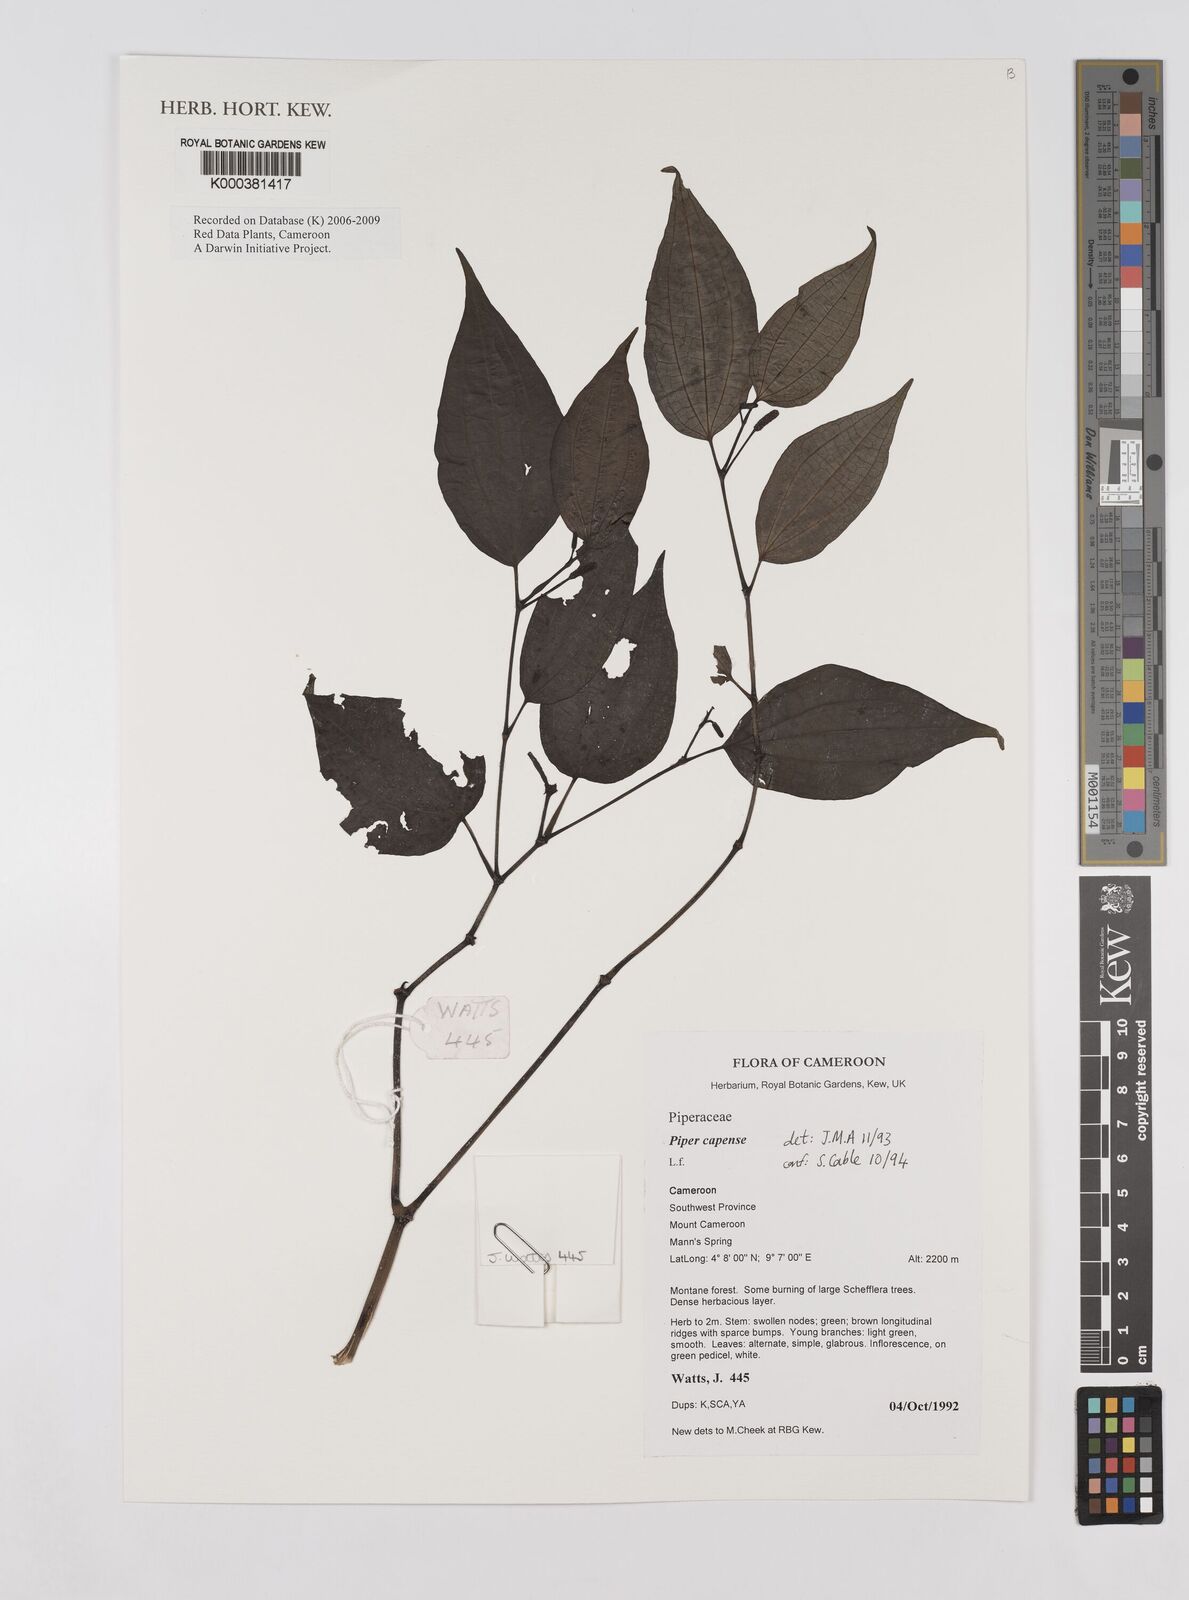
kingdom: Plantae
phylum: Tracheophyta
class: Magnoliopsida
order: Piperales
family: Piperaceae
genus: Piper
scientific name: Piper capense
